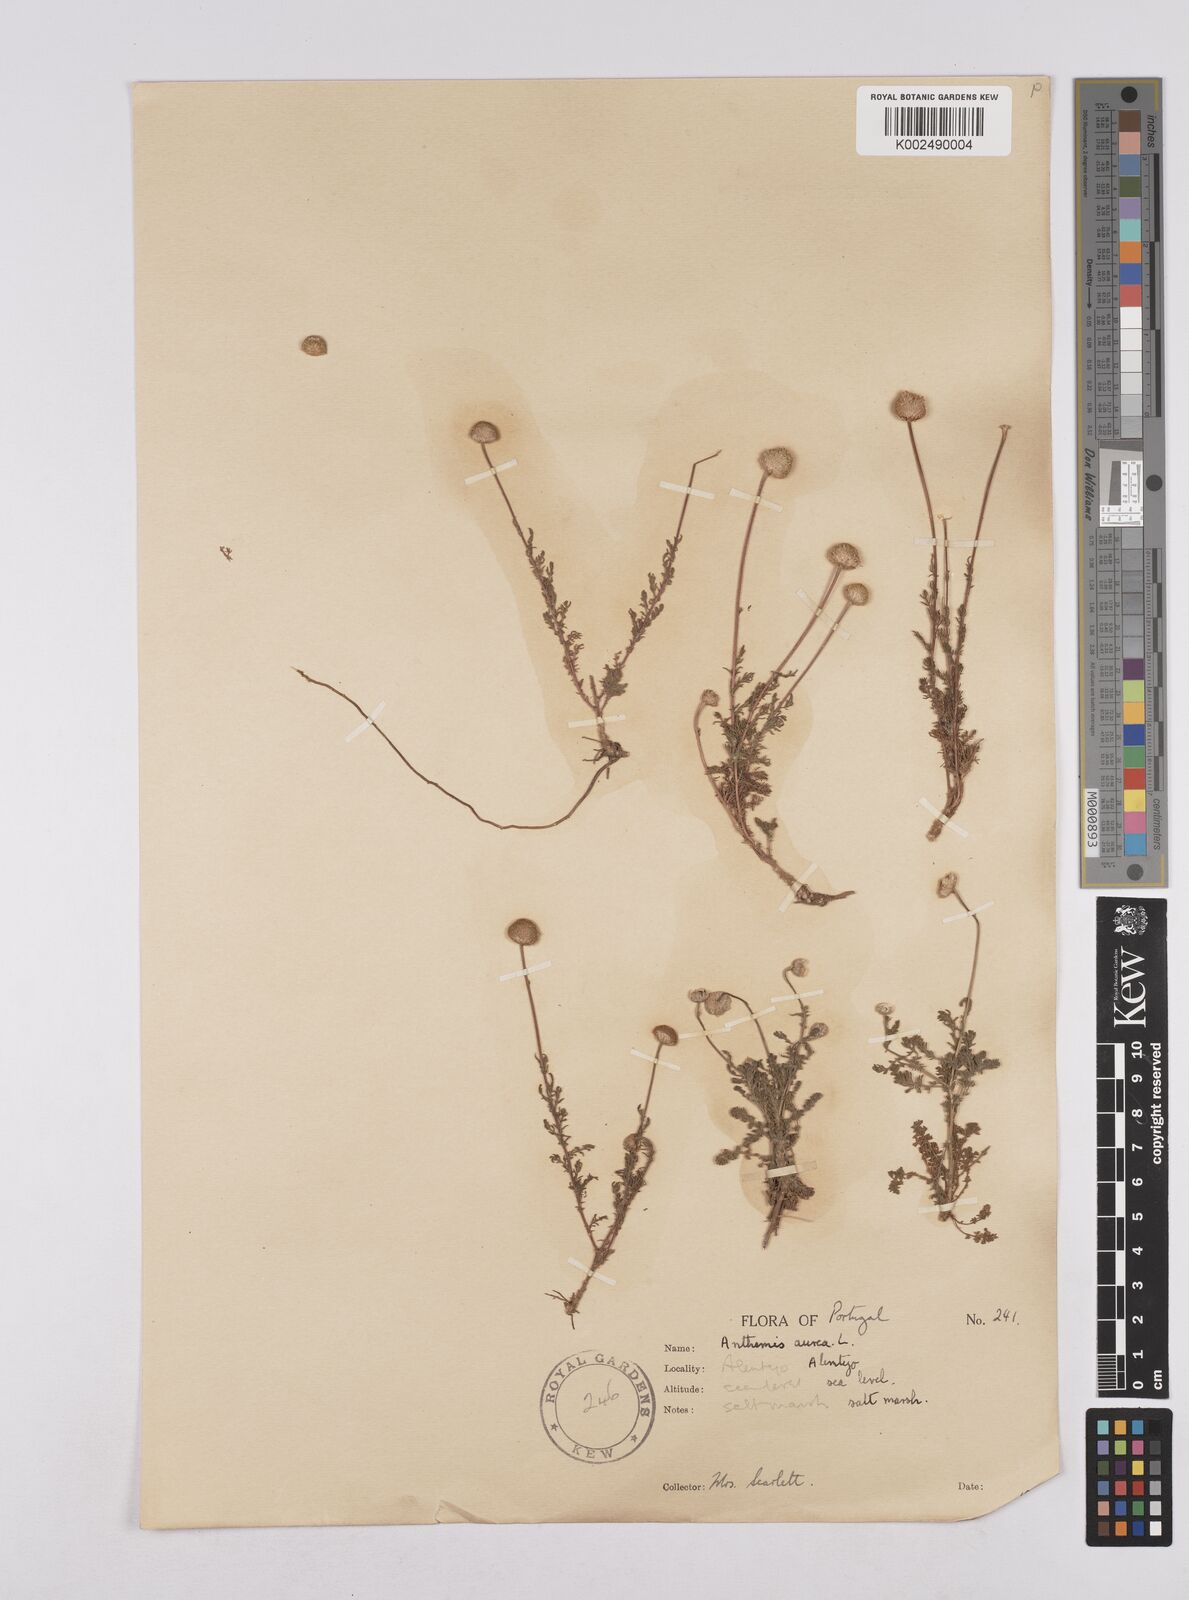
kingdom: Plantae
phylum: Tracheophyta
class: Magnoliopsida
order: Asterales
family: Asteraceae
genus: Matricaria
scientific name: Matricaria aurea
